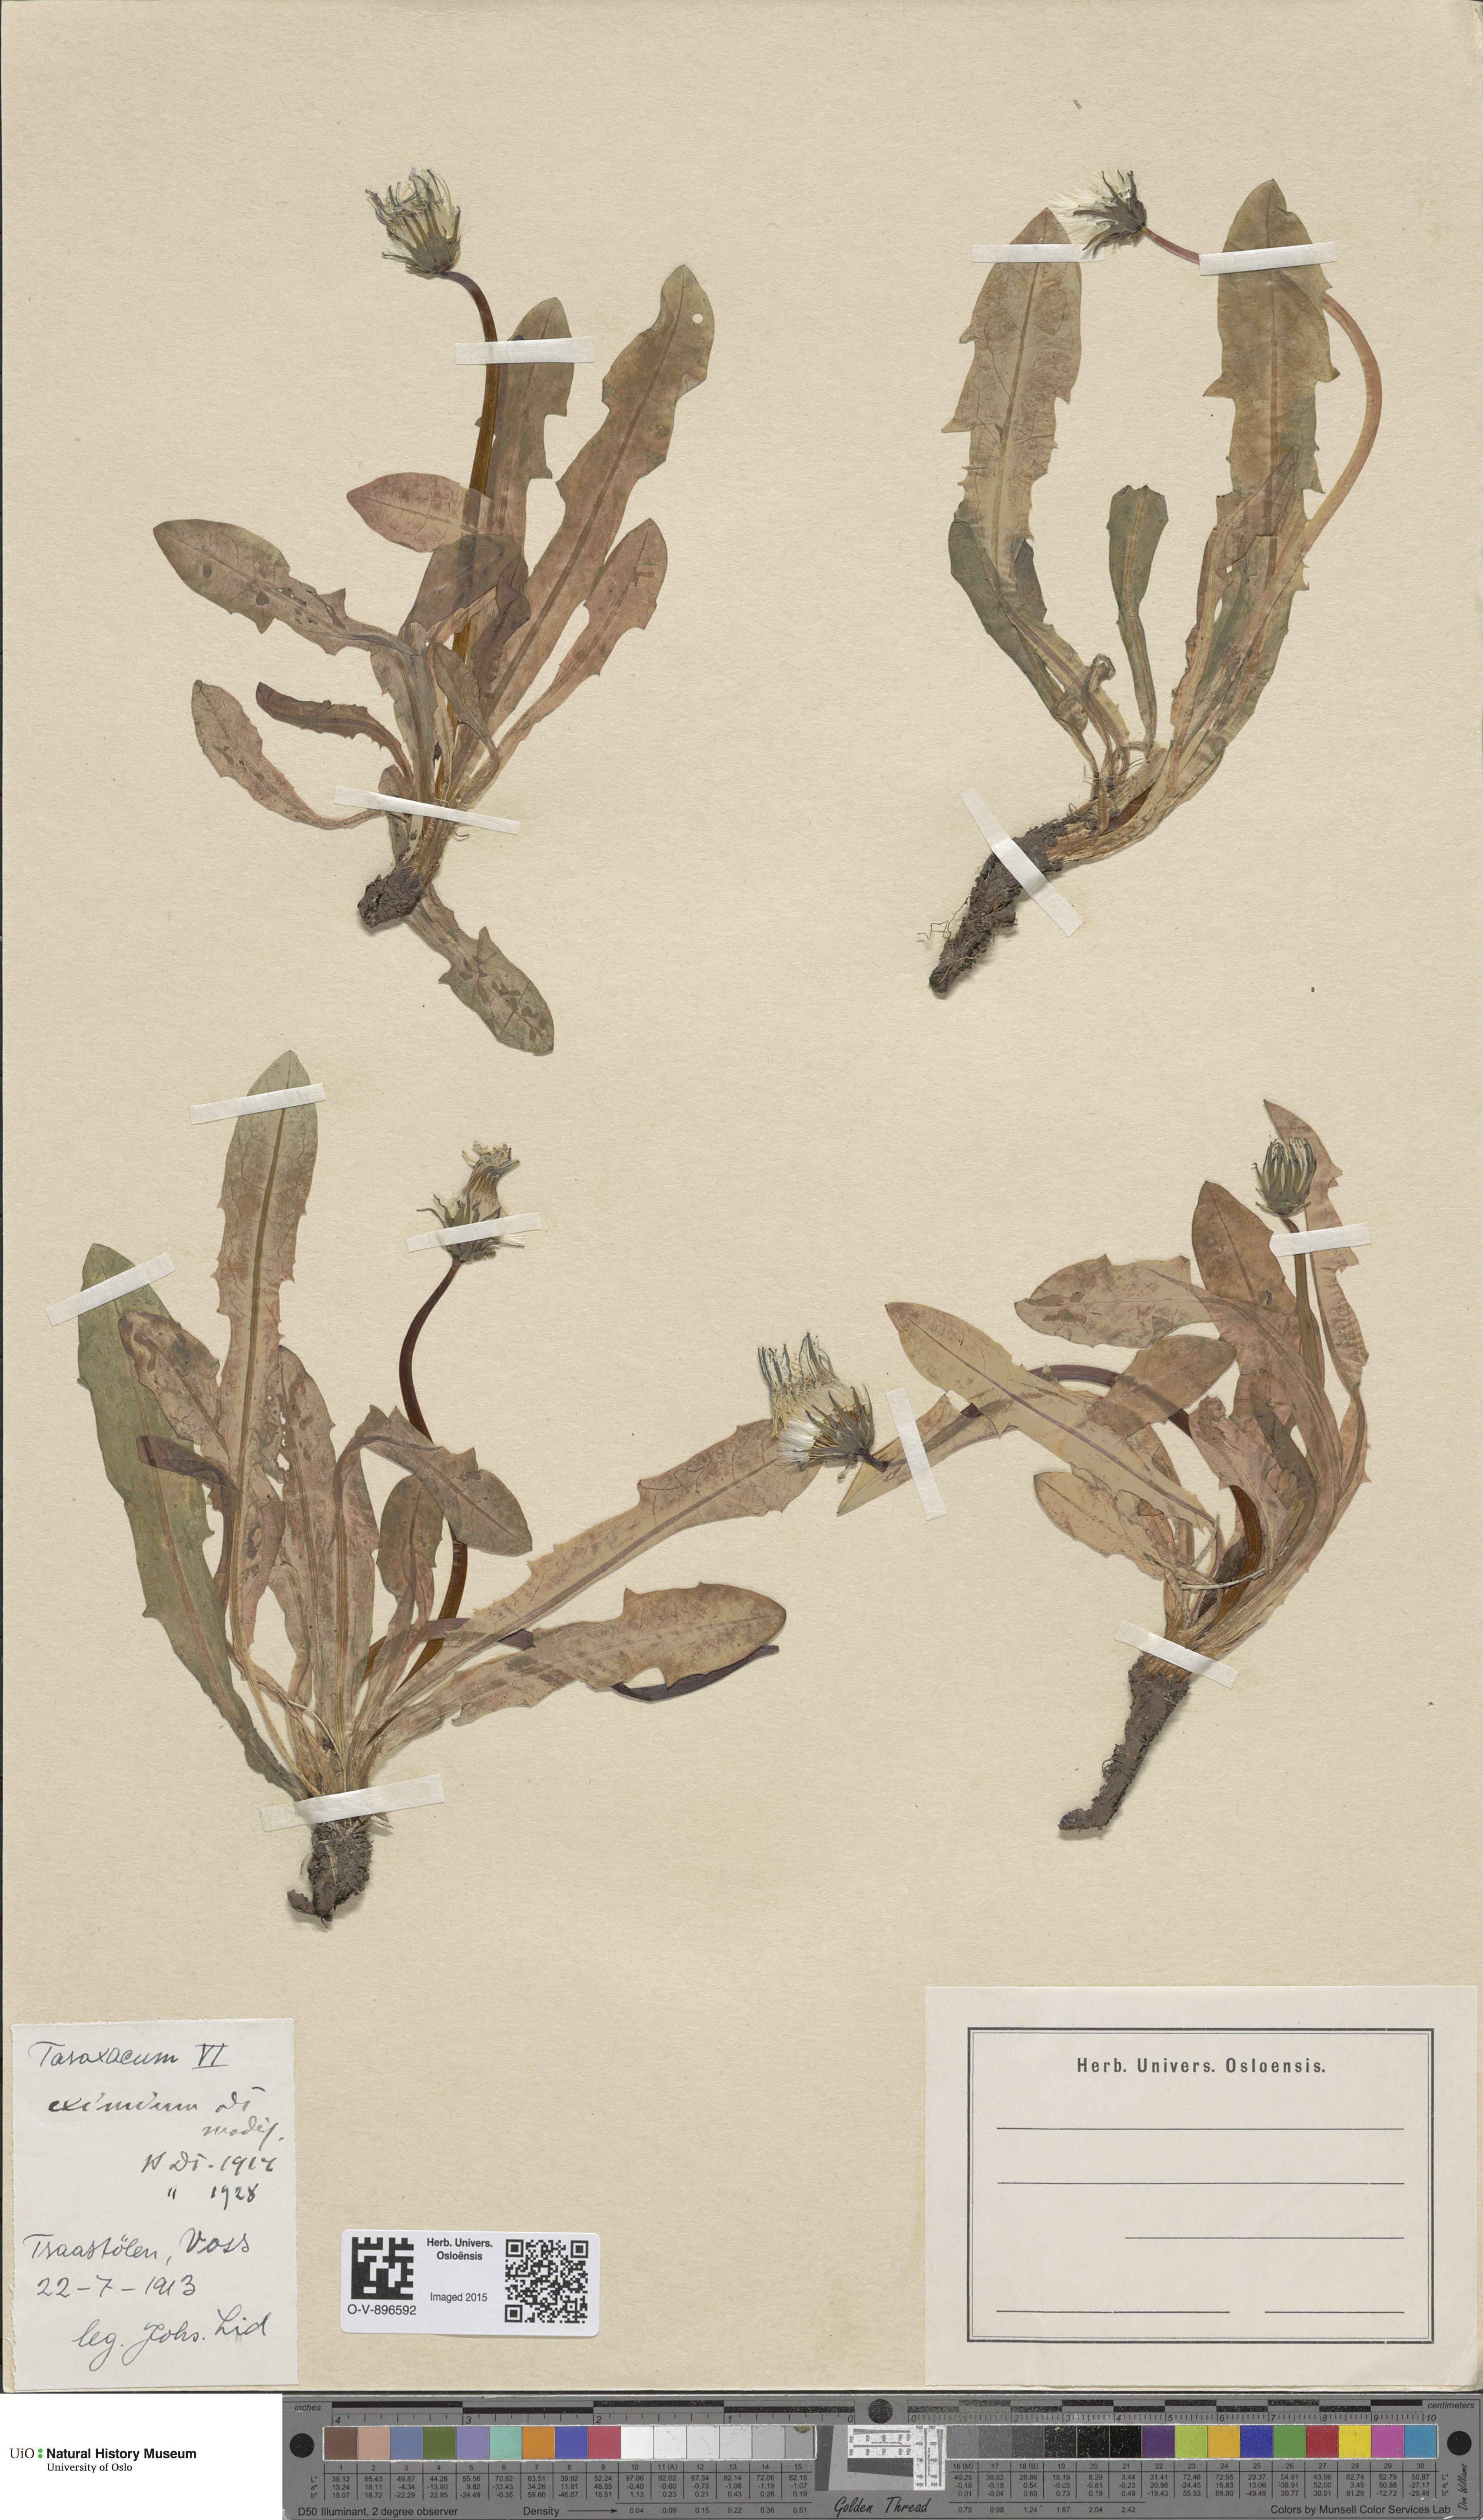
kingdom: Plantae
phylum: Tracheophyta
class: Magnoliopsida
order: Asterales
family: Asteraceae
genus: Taraxacum
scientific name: Taraxacum eximium
